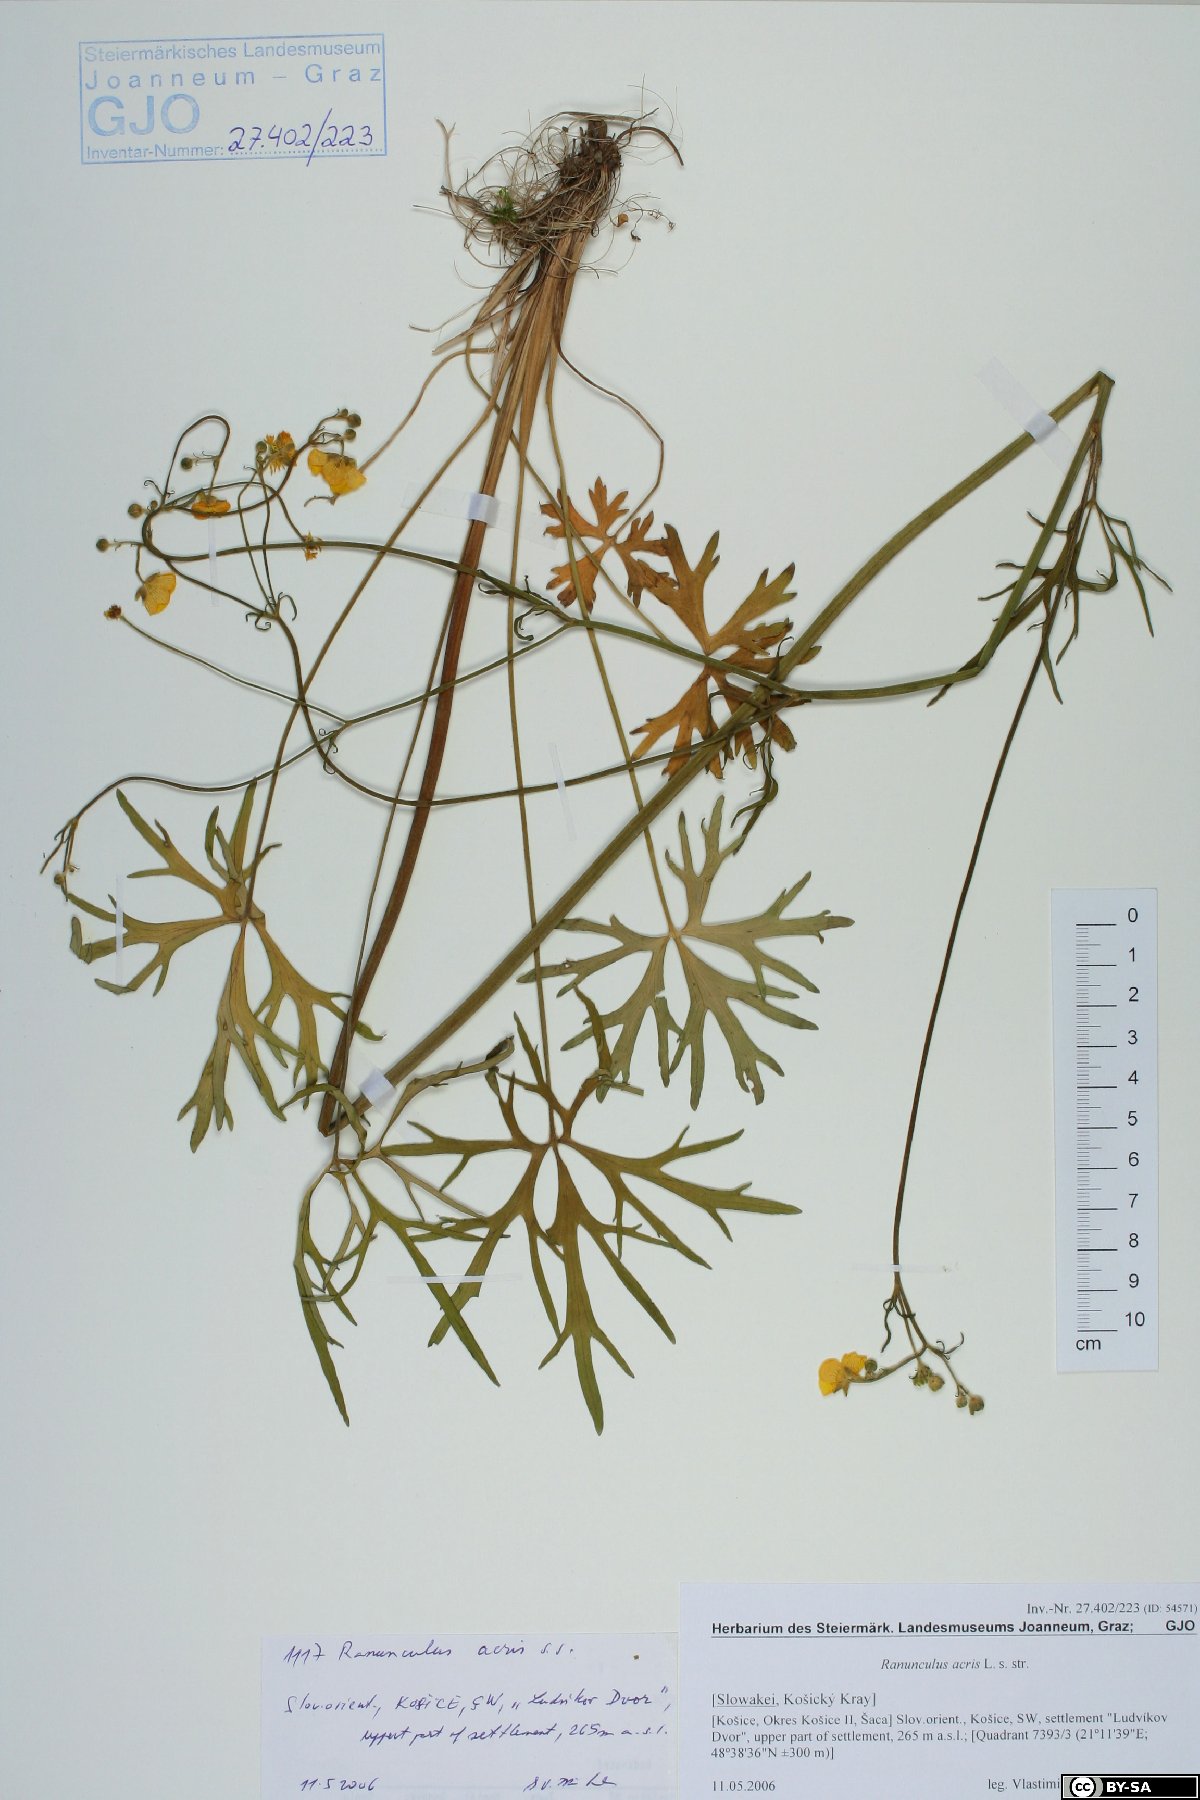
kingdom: Plantae
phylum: Tracheophyta
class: Magnoliopsida
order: Ranunculales
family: Ranunculaceae
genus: Ranunculus
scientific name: Ranunculus acris
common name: Meadow buttercup
